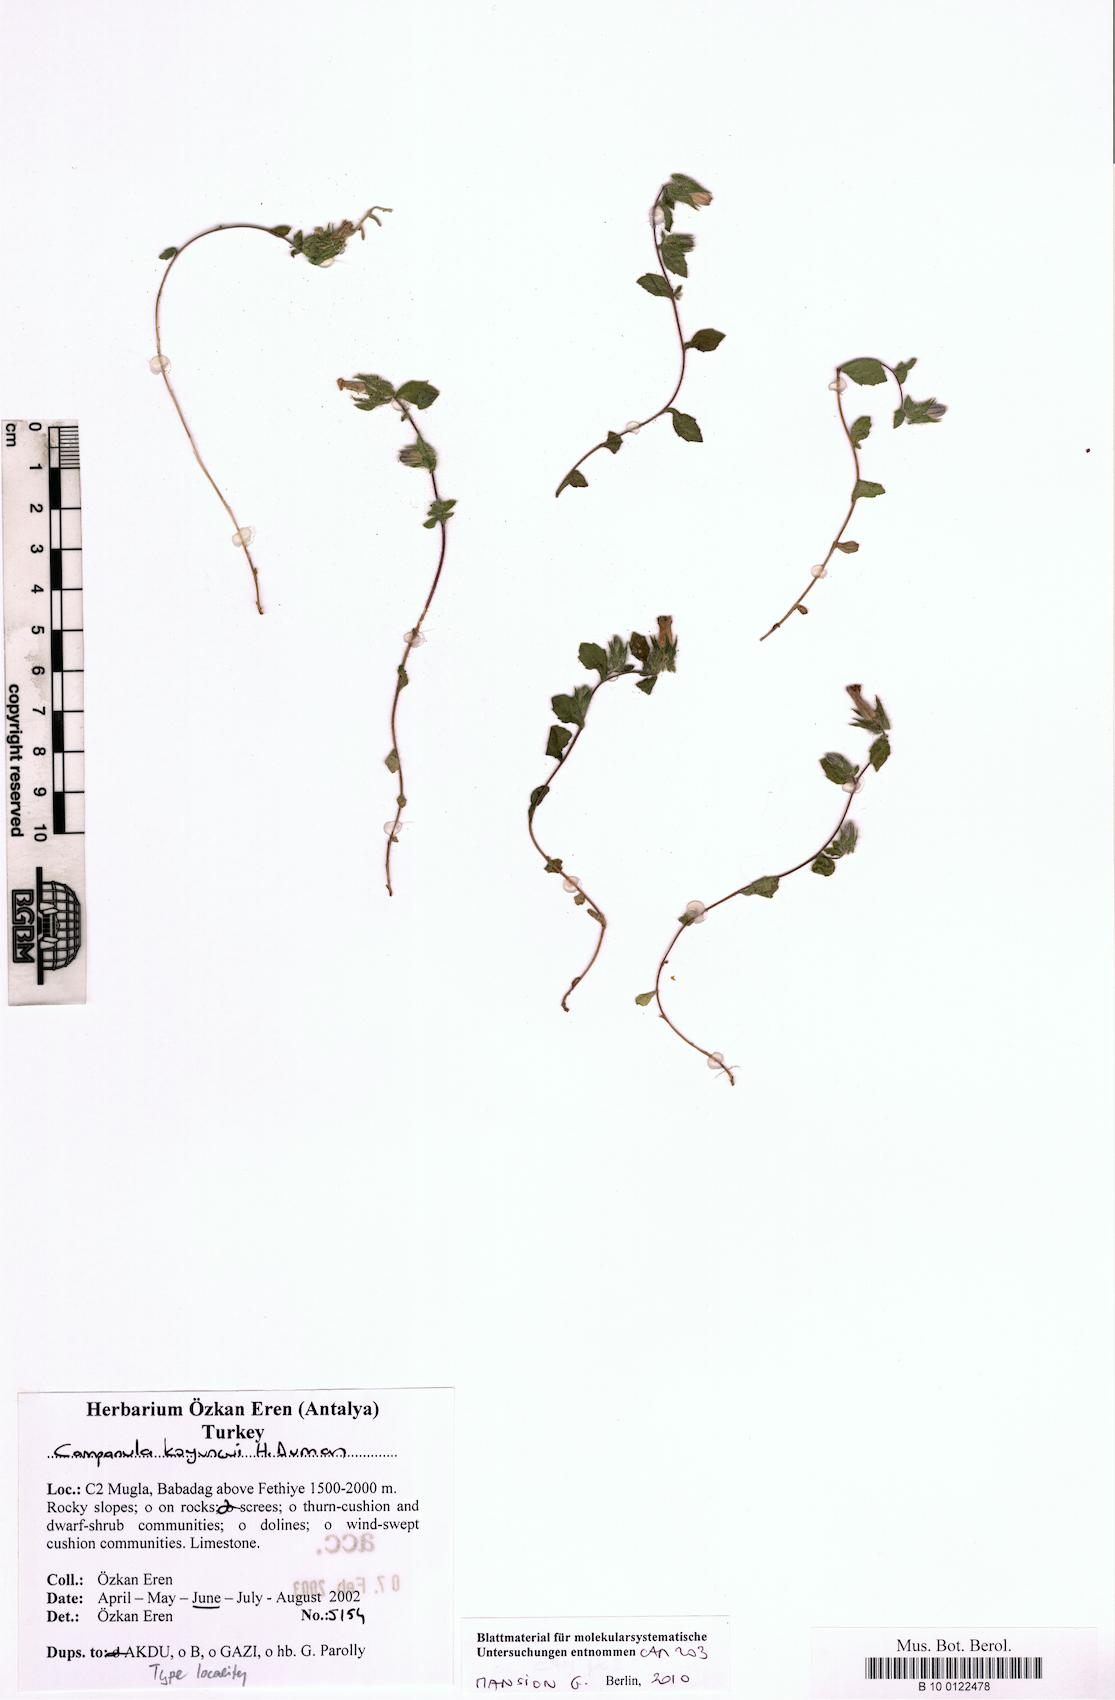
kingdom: Plantae
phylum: Tracheophyta
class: Magnoliopsida
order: Asterales
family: Campanulaceae
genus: Campanula
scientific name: Campanula koyuncui
